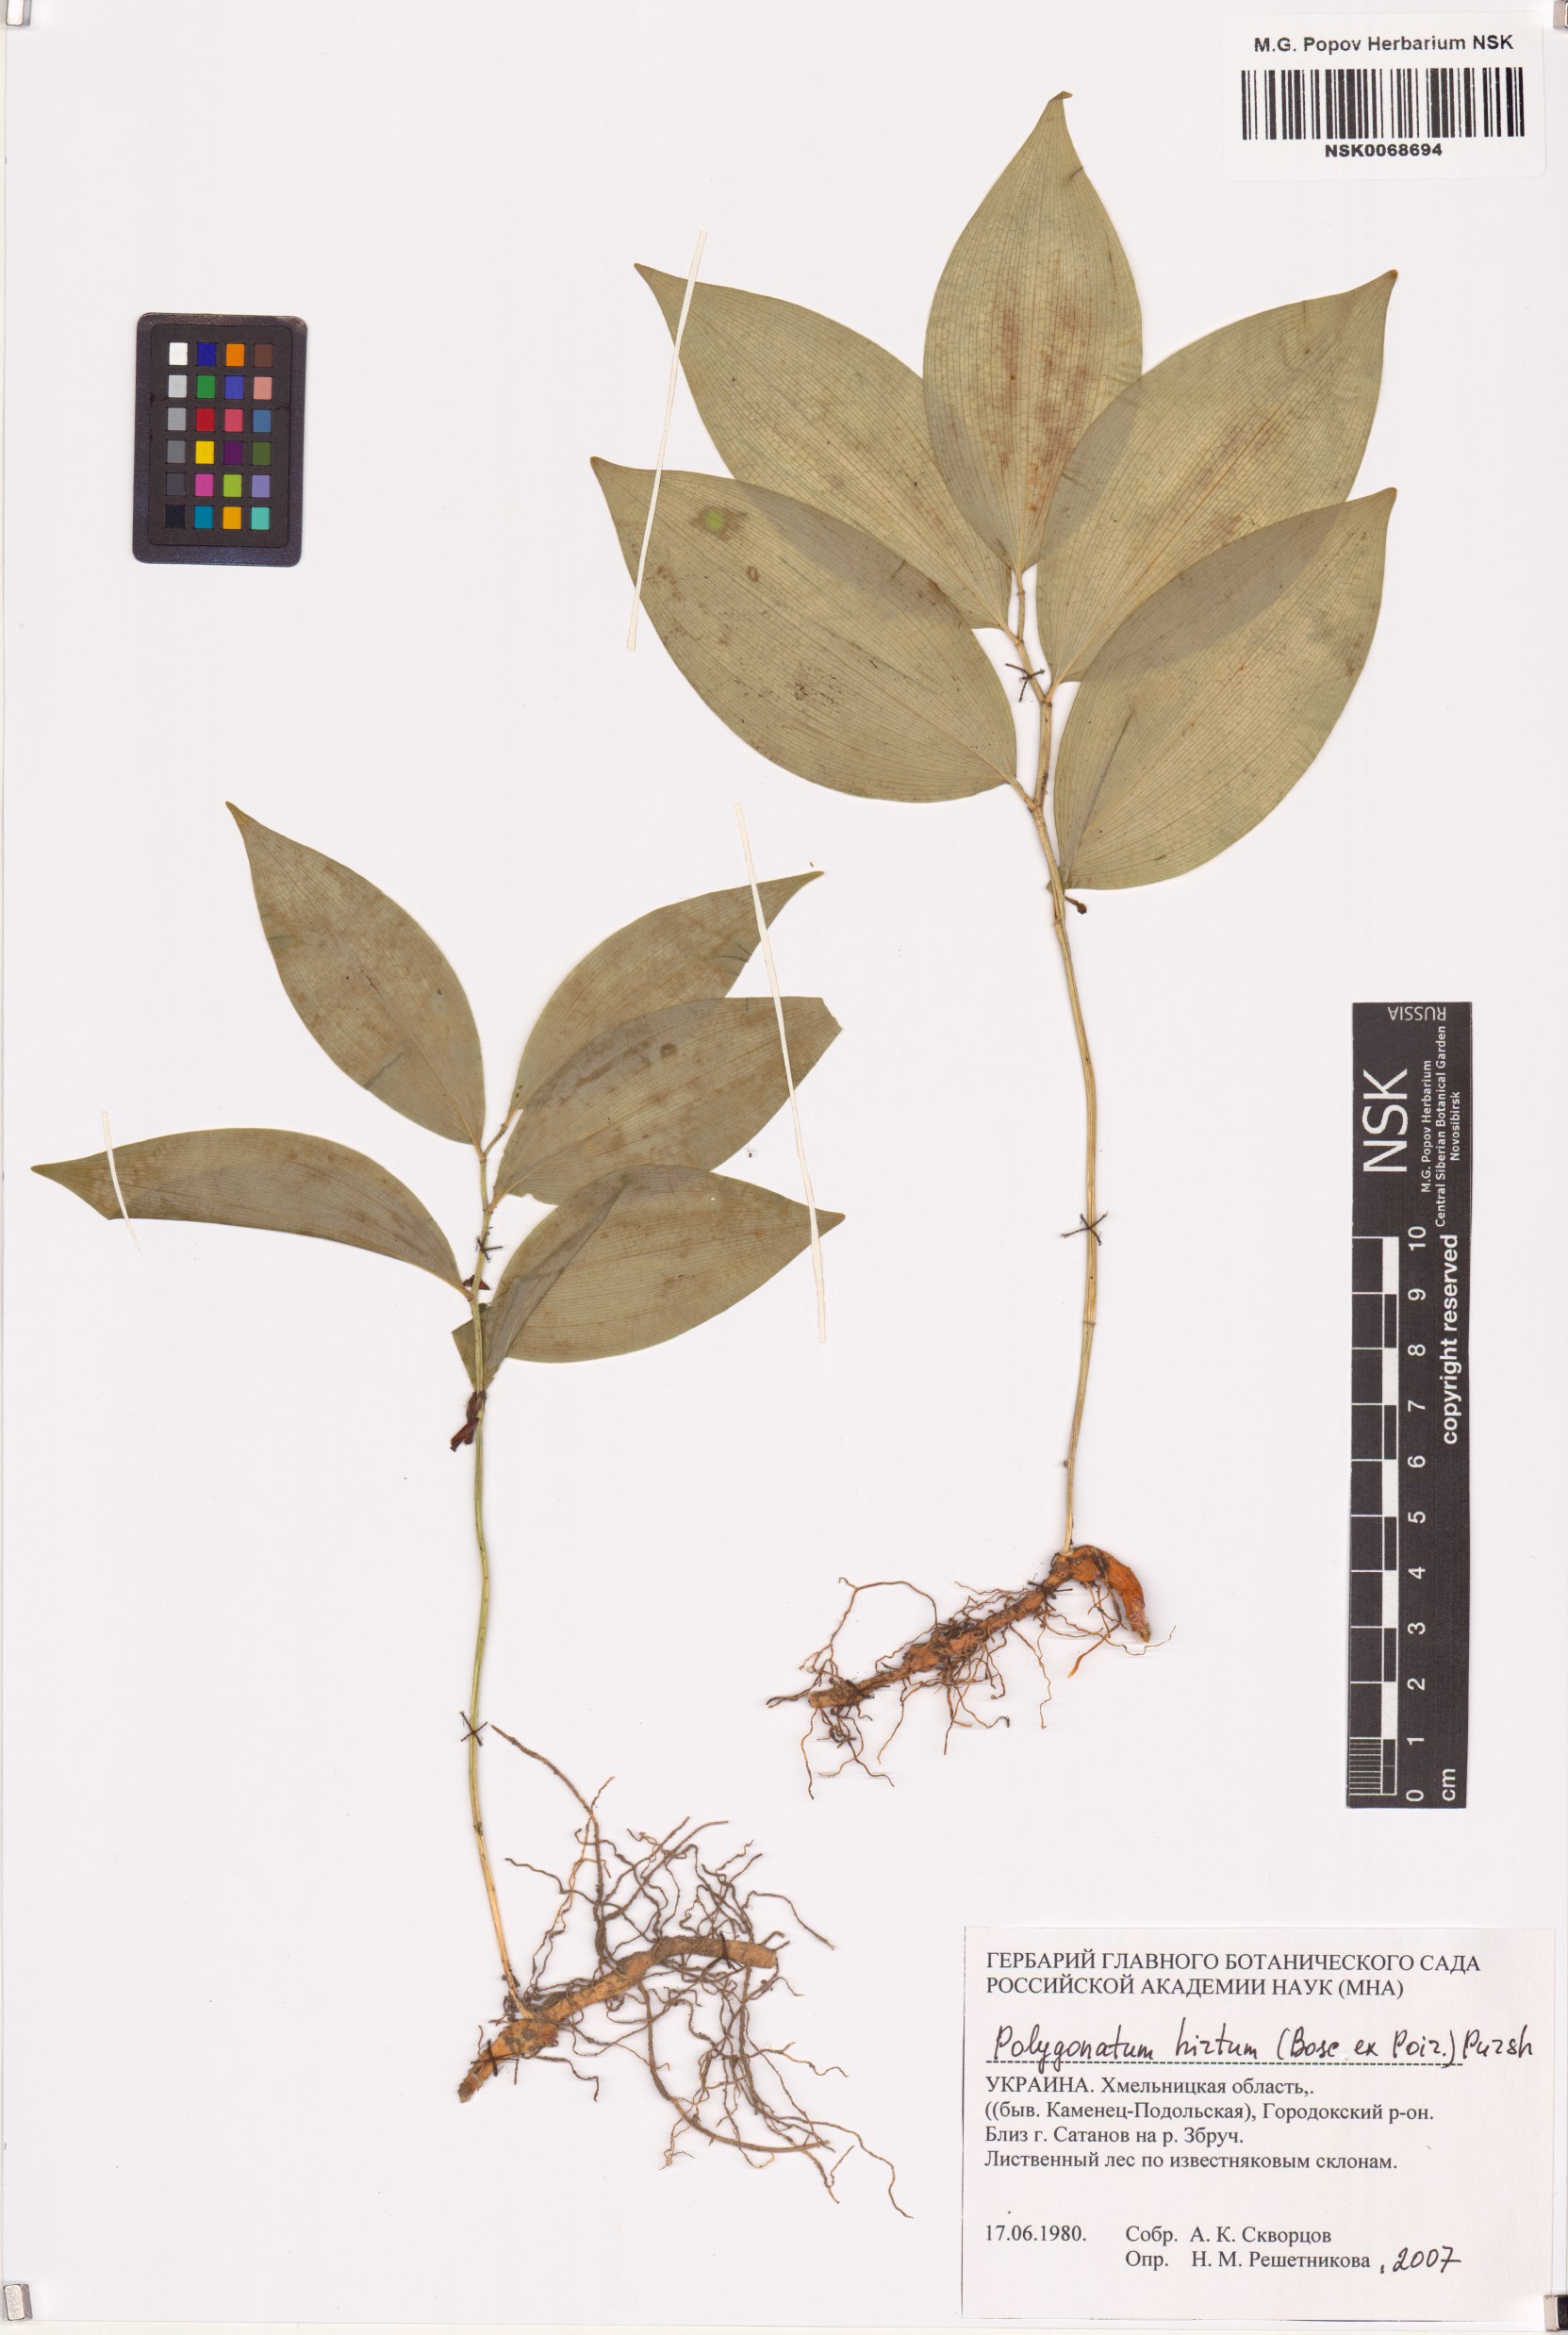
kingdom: Plantae
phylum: Tracheophyta
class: Liliopsida
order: Asparagales
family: Asparagaceae
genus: Polygonatum
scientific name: Polygonatum latifolium
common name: Broadleaf solomon's seal
